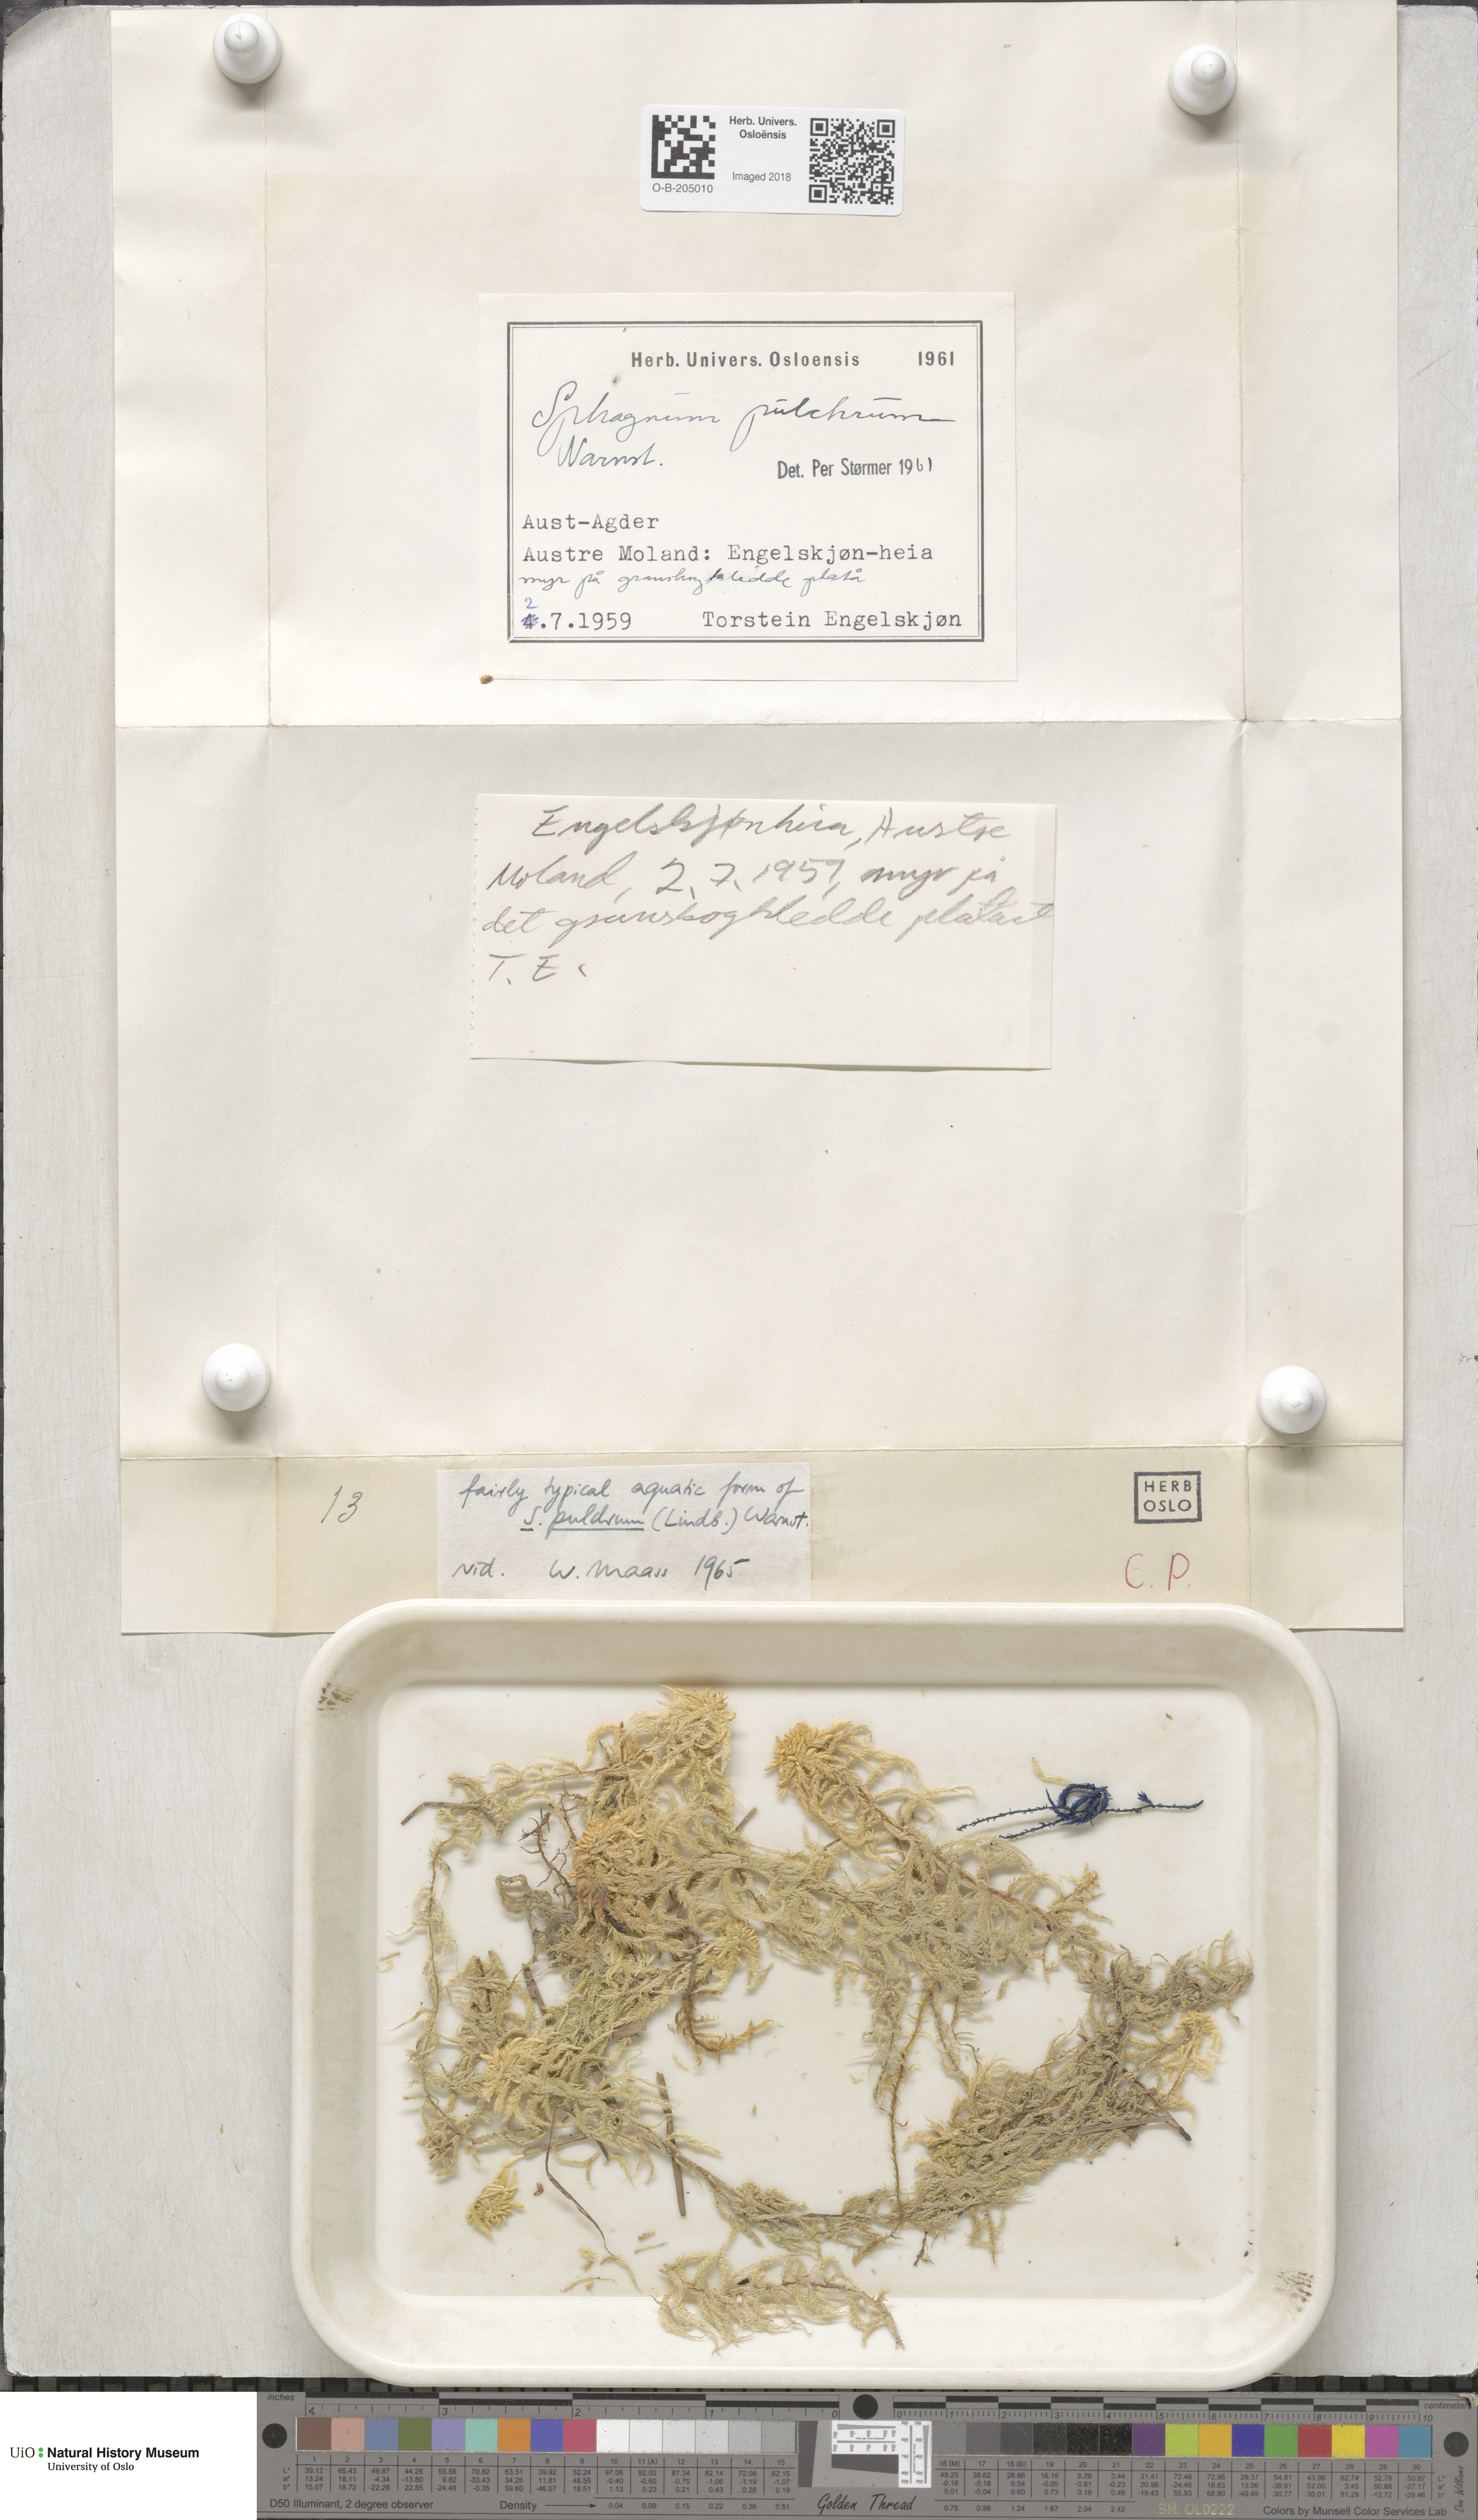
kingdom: Plantae
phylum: Bryophyta
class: Sphagnopsida
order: Sphagnales
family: Sphagnaceae
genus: Sphagnum
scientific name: Sphagnum pulchrum
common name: Beautiful peat moss
